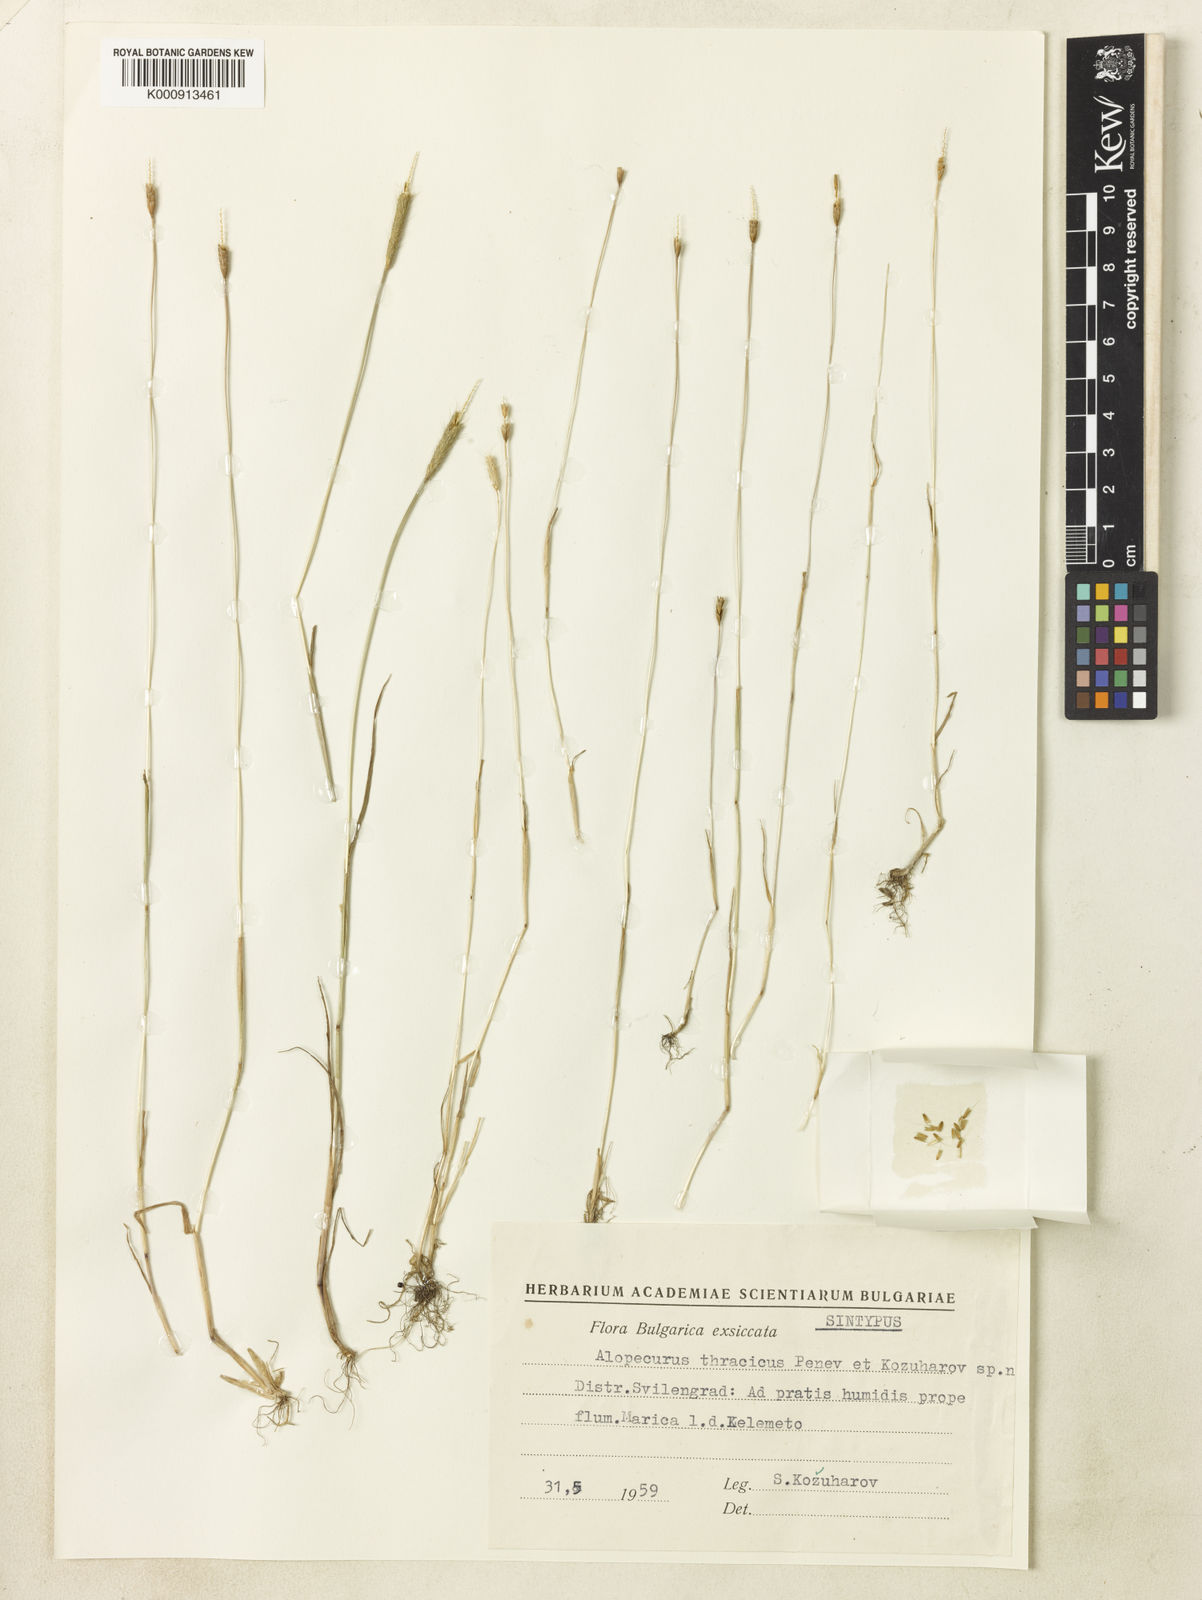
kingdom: Plantae
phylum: Tracheophyta
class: Liliopsida
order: Poales
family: Poaceae
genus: Alopecurus
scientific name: Alopecurus creticus
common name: Cretan meadow foxtail
